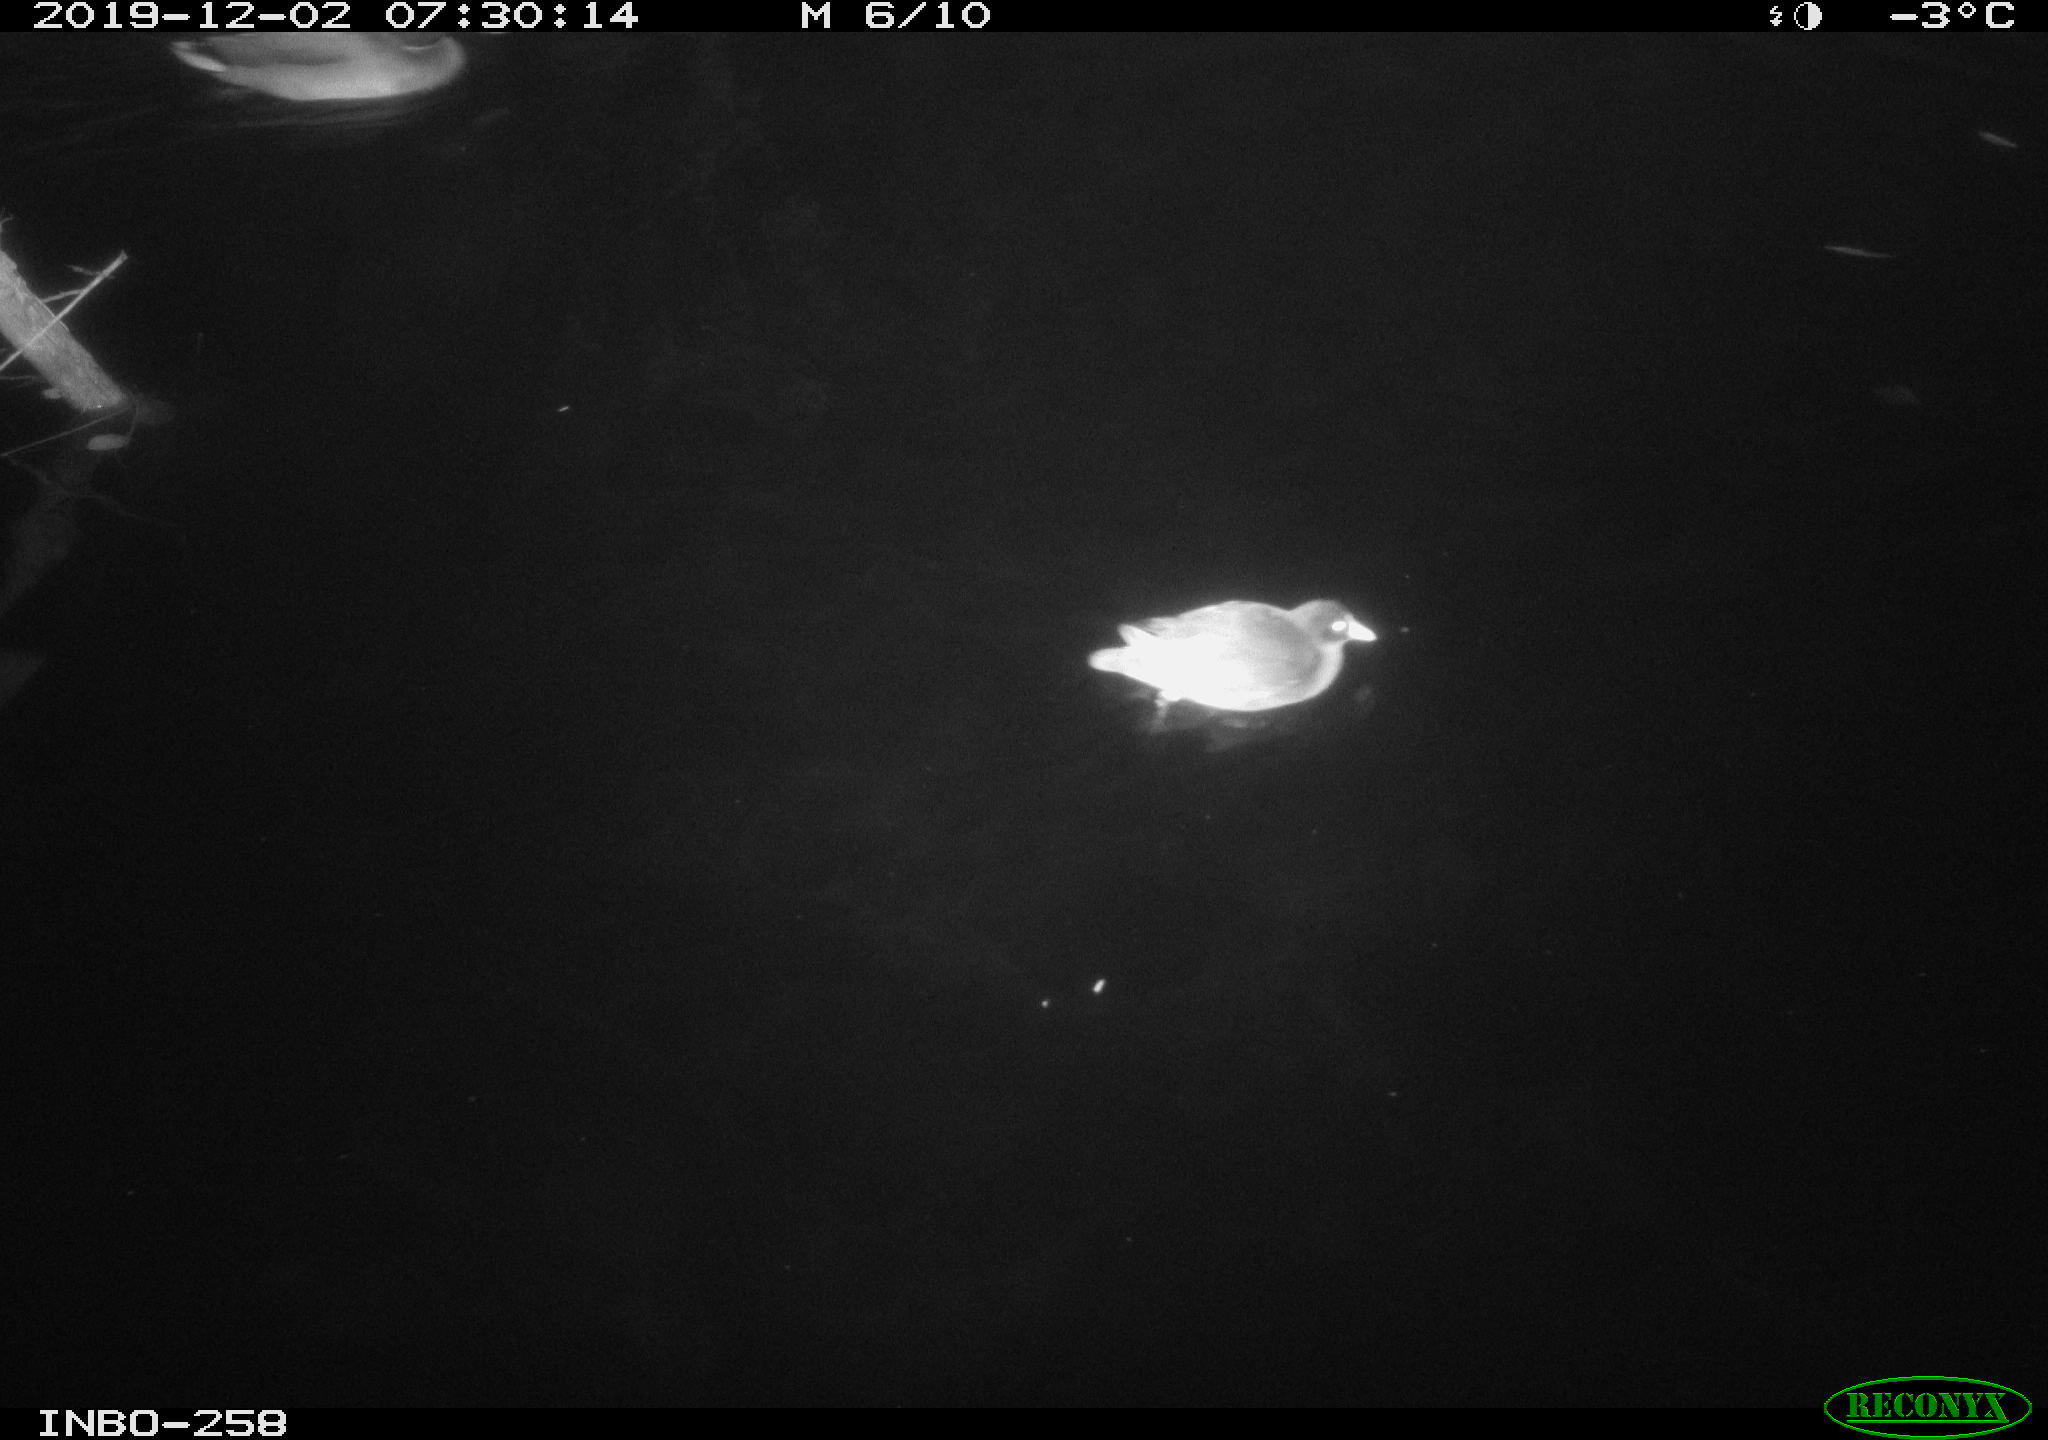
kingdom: Animalia
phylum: Chordata
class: Aves
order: Anseriformes
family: Anatidae
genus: Anas
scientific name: Anas platyrhynchos
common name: Mallard
